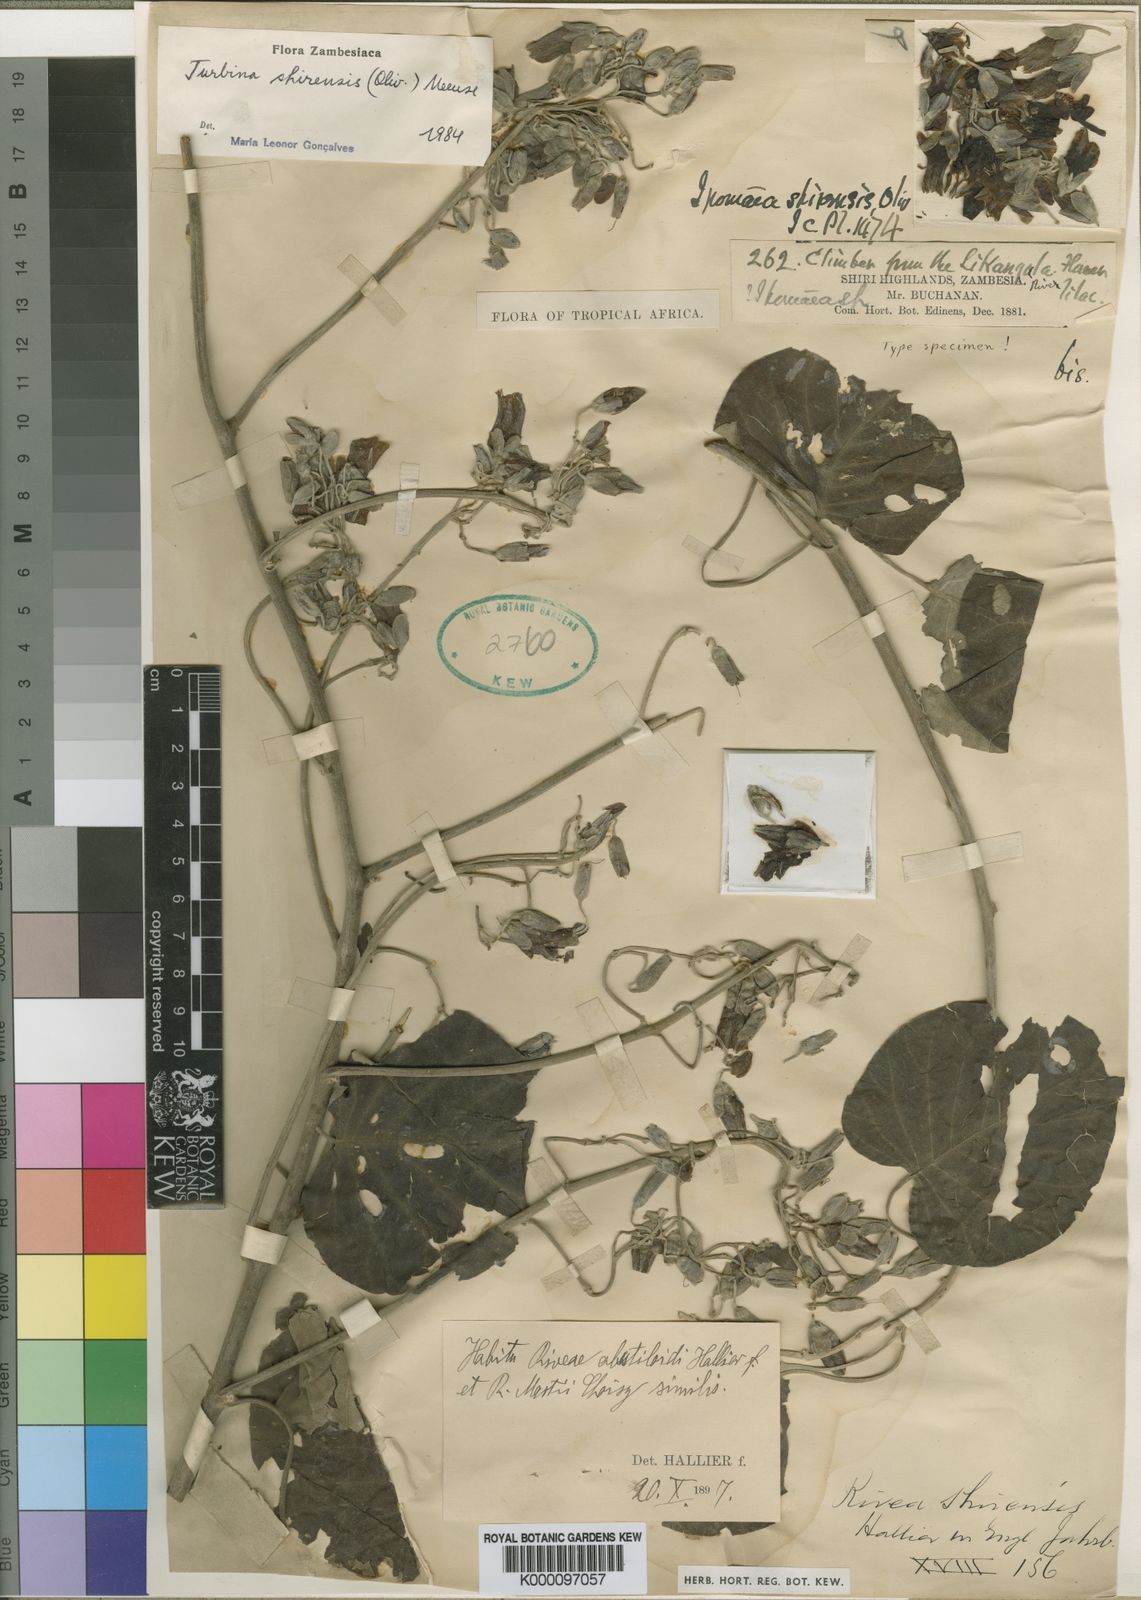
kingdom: Plantae
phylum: Tracheophyta
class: Magnoliopsida
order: Solanales
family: Convolvulaceae
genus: Paralepistemon
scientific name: Paralepistemon shirensis
